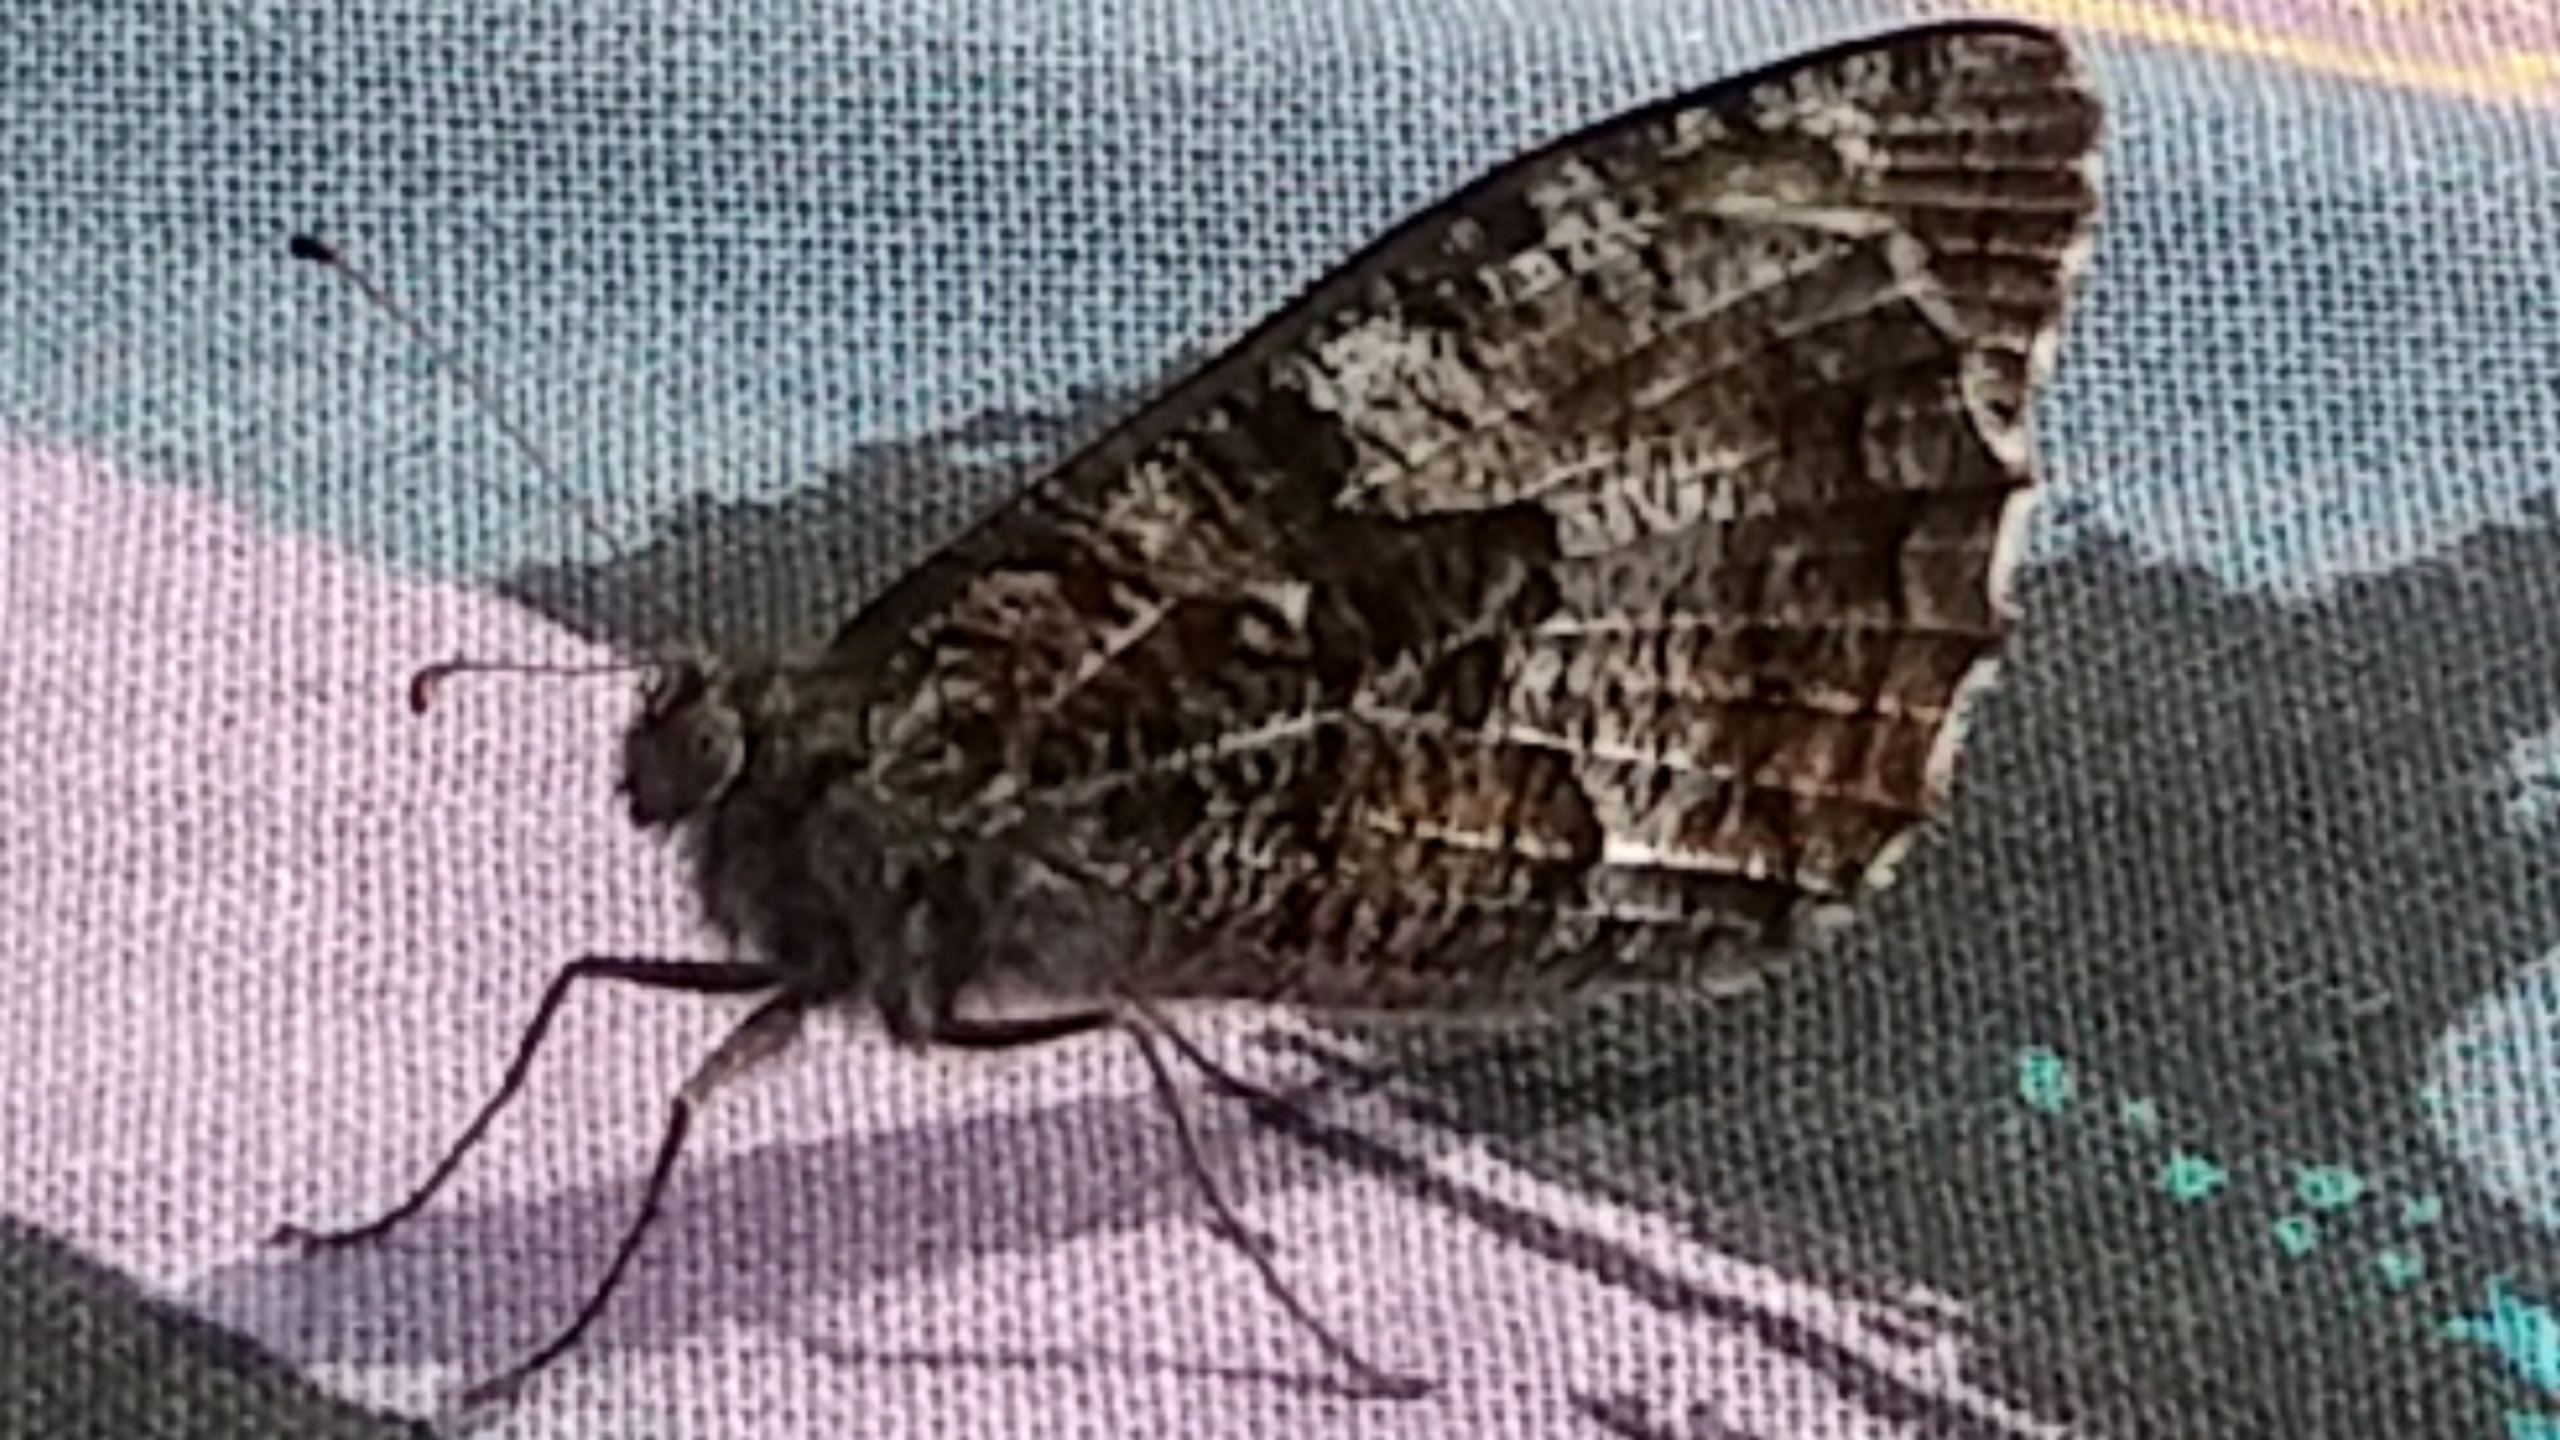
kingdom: Animalia
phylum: Arthropoda
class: Insecta
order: Lepidoptera
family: Nymphalidae
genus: Hipparchia
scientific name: Hipparchia semele
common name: Sandrandøje
